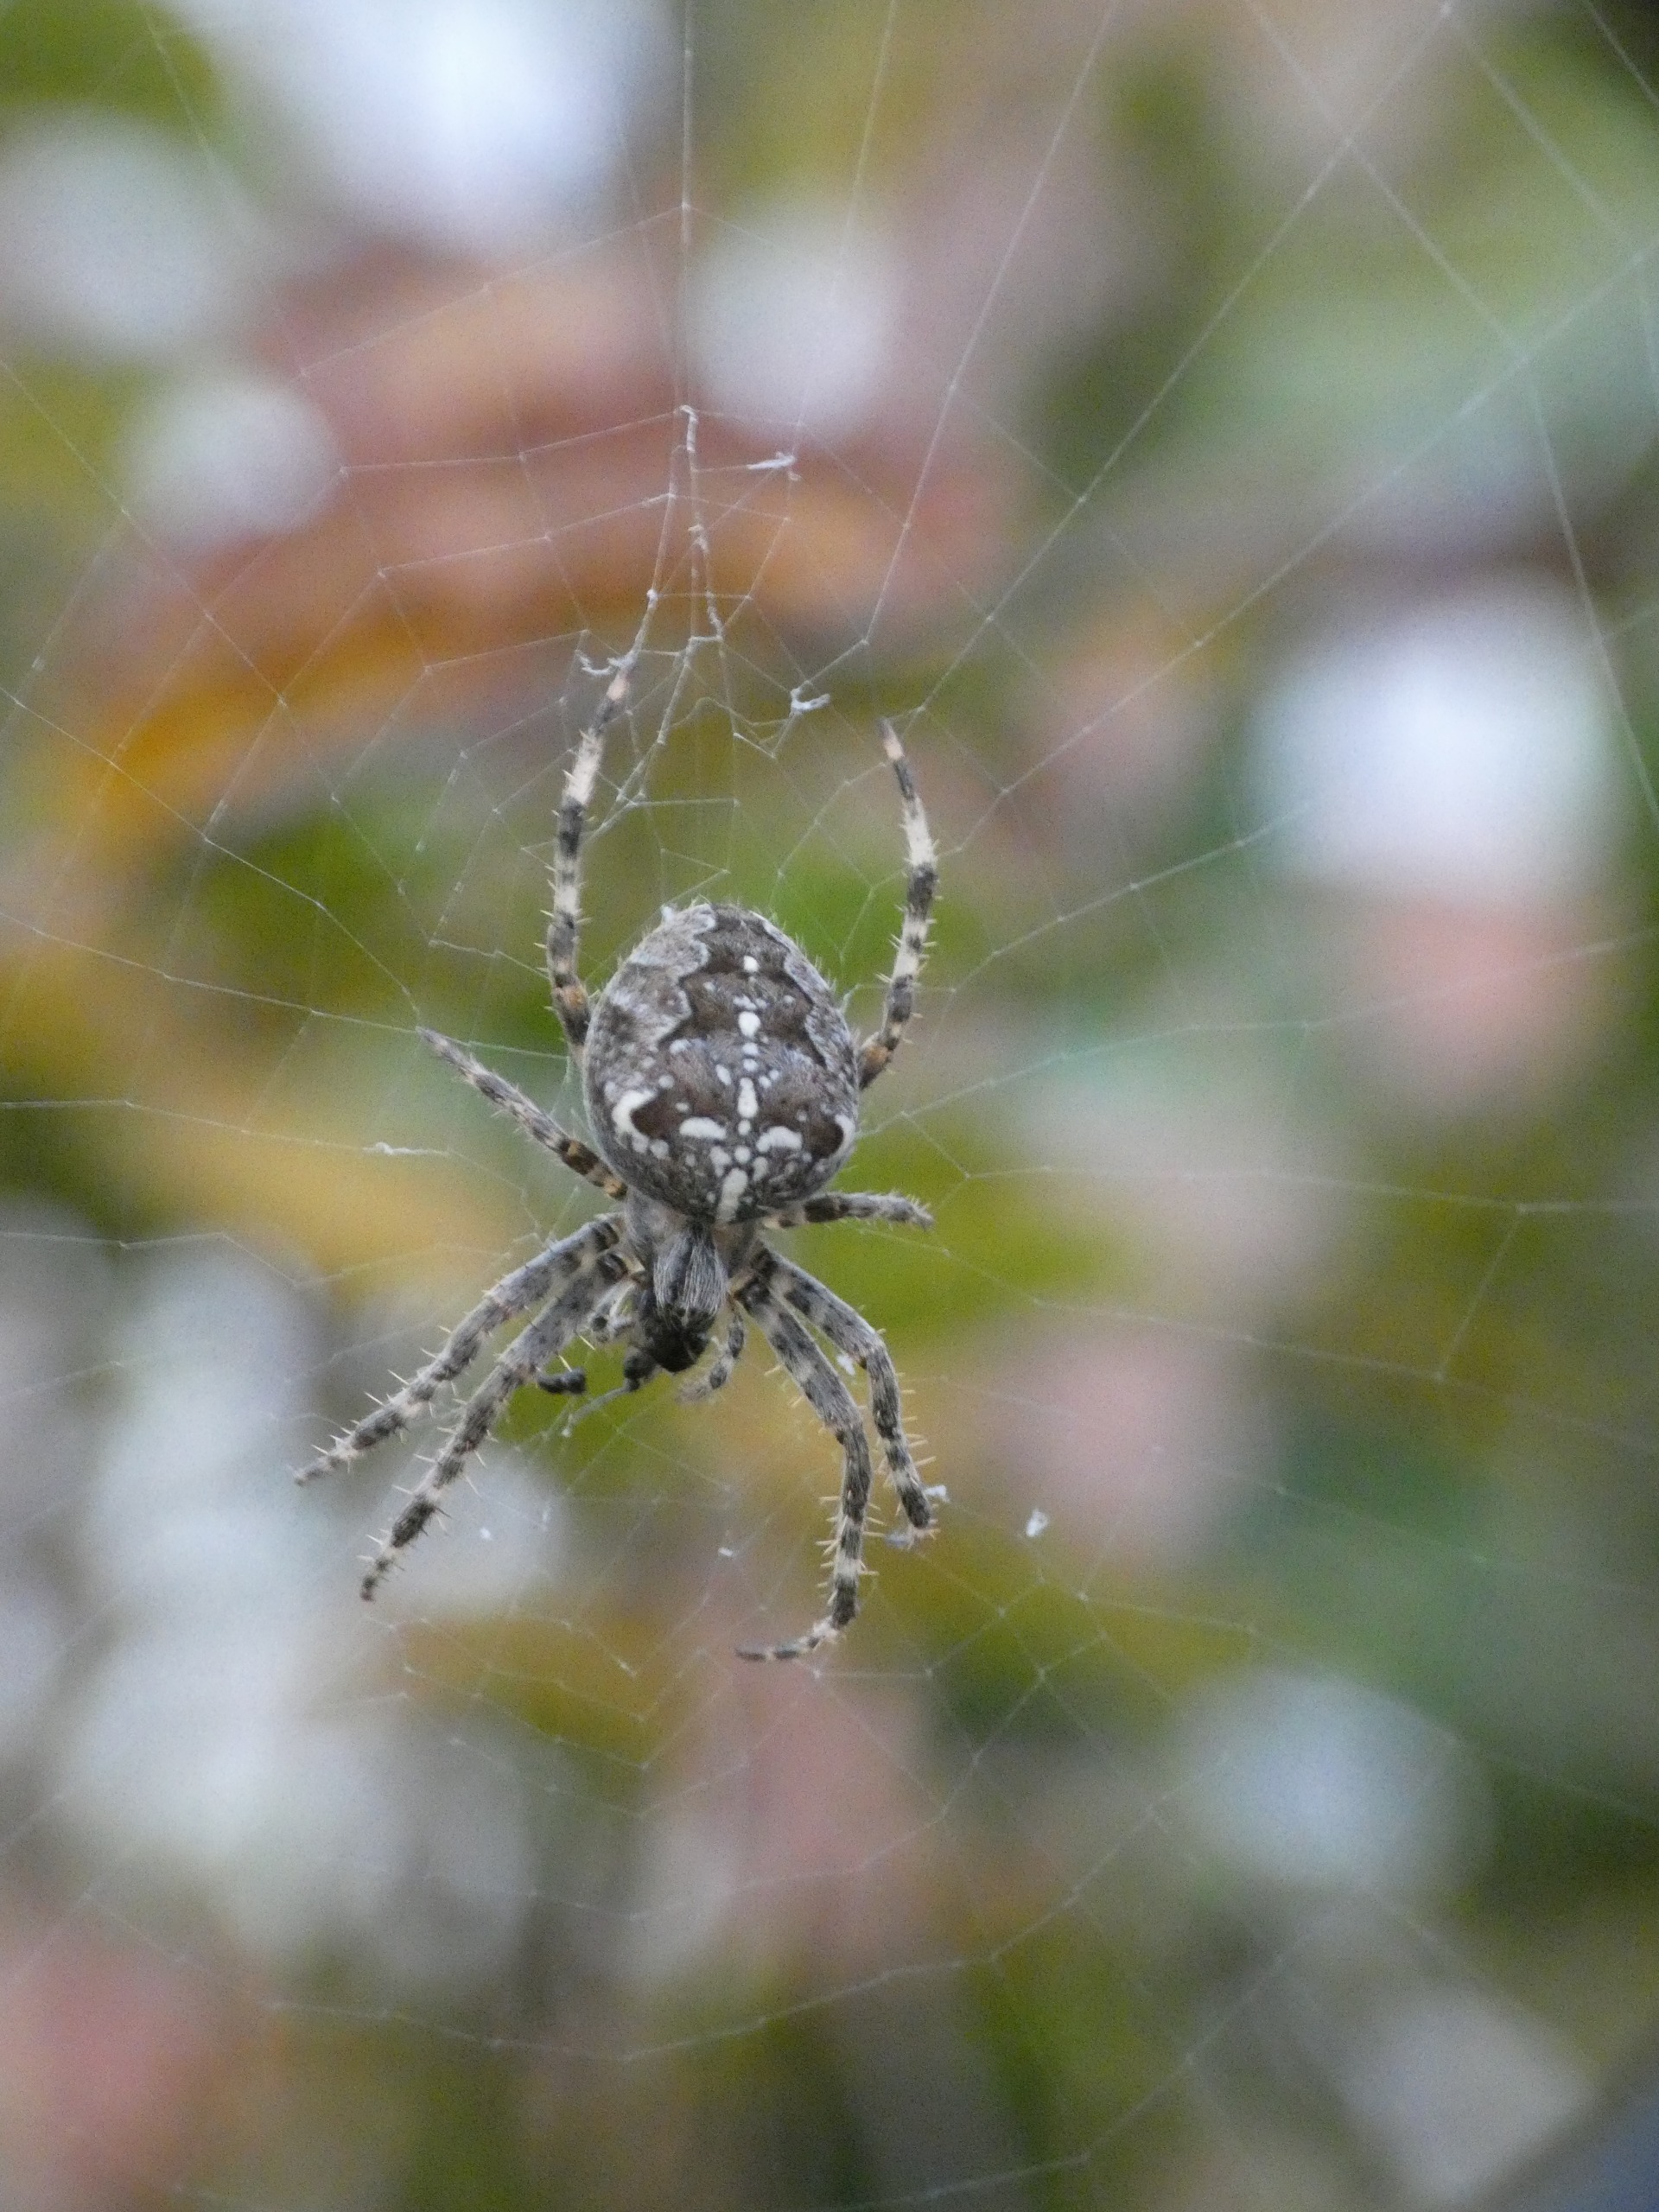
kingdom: Animalia
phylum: Arthropoda
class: Arachnida
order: Araneae
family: Araneidae
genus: Araneus
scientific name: Araneus diadematus
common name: Korsedderkop
